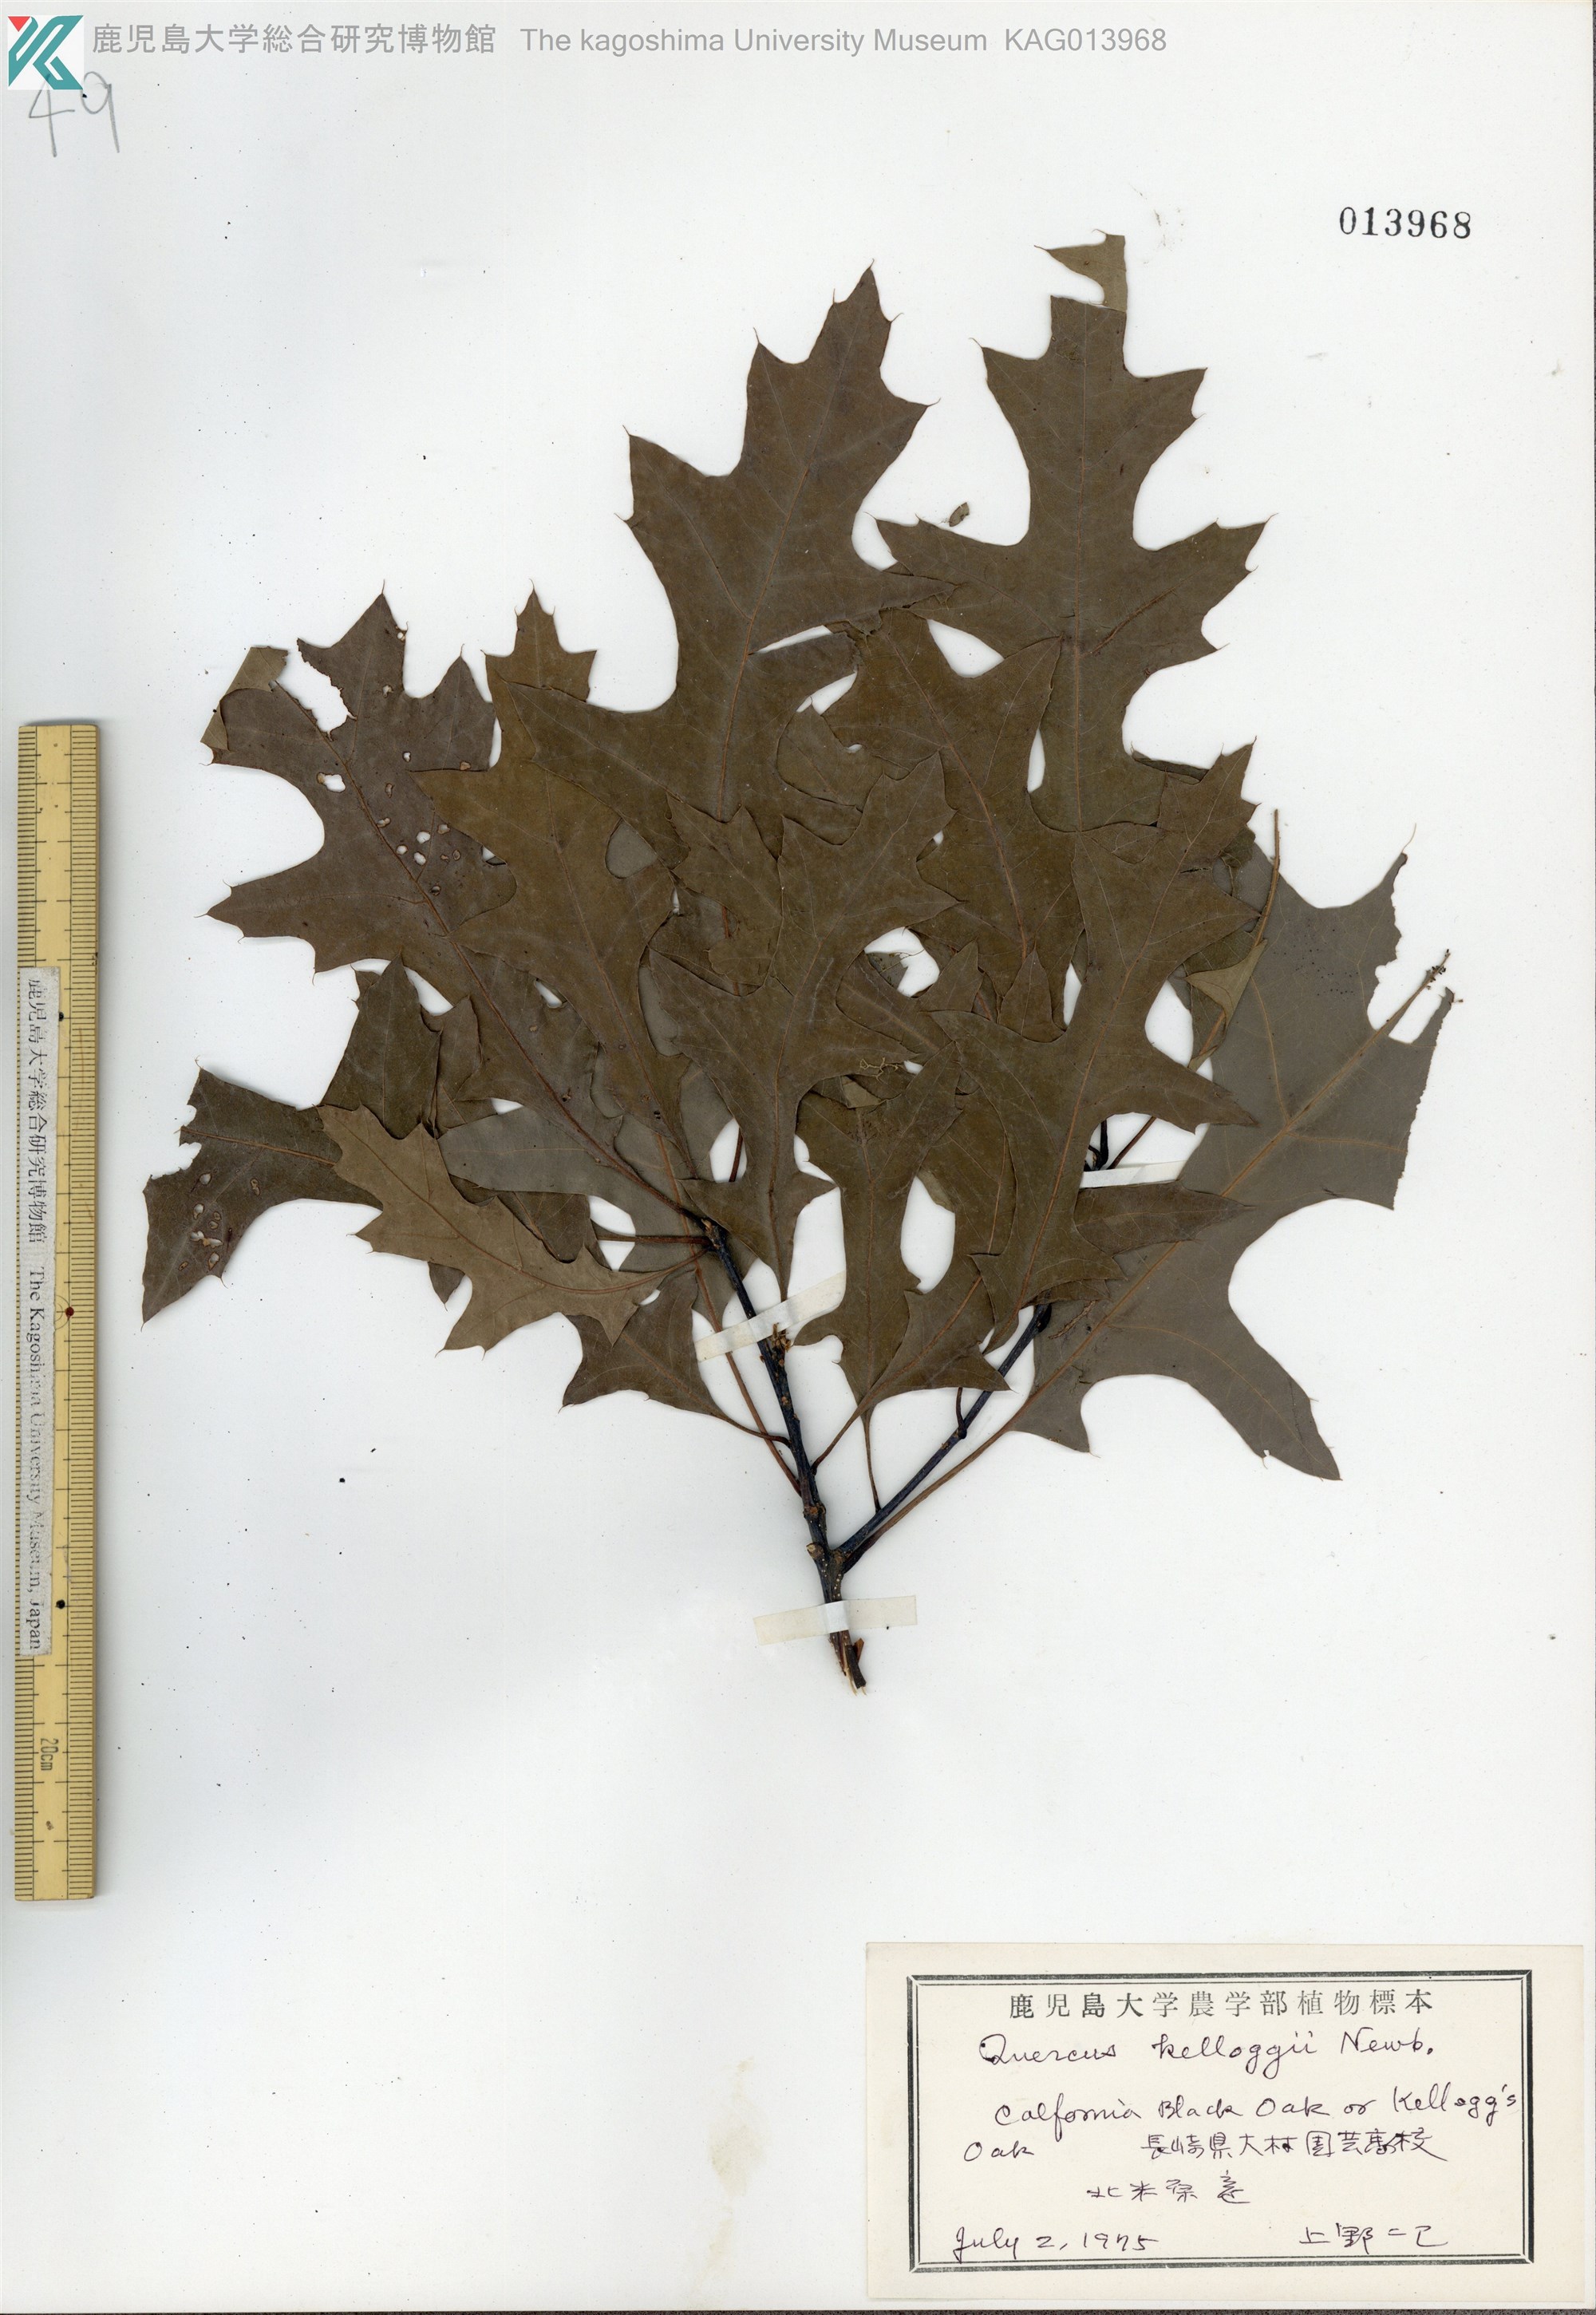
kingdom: Plantae
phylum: Tracheophyta
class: Magnoliopsida
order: Fagales
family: Fagaceae
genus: Quercus
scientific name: Quercus kelloggii
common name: California black oak
